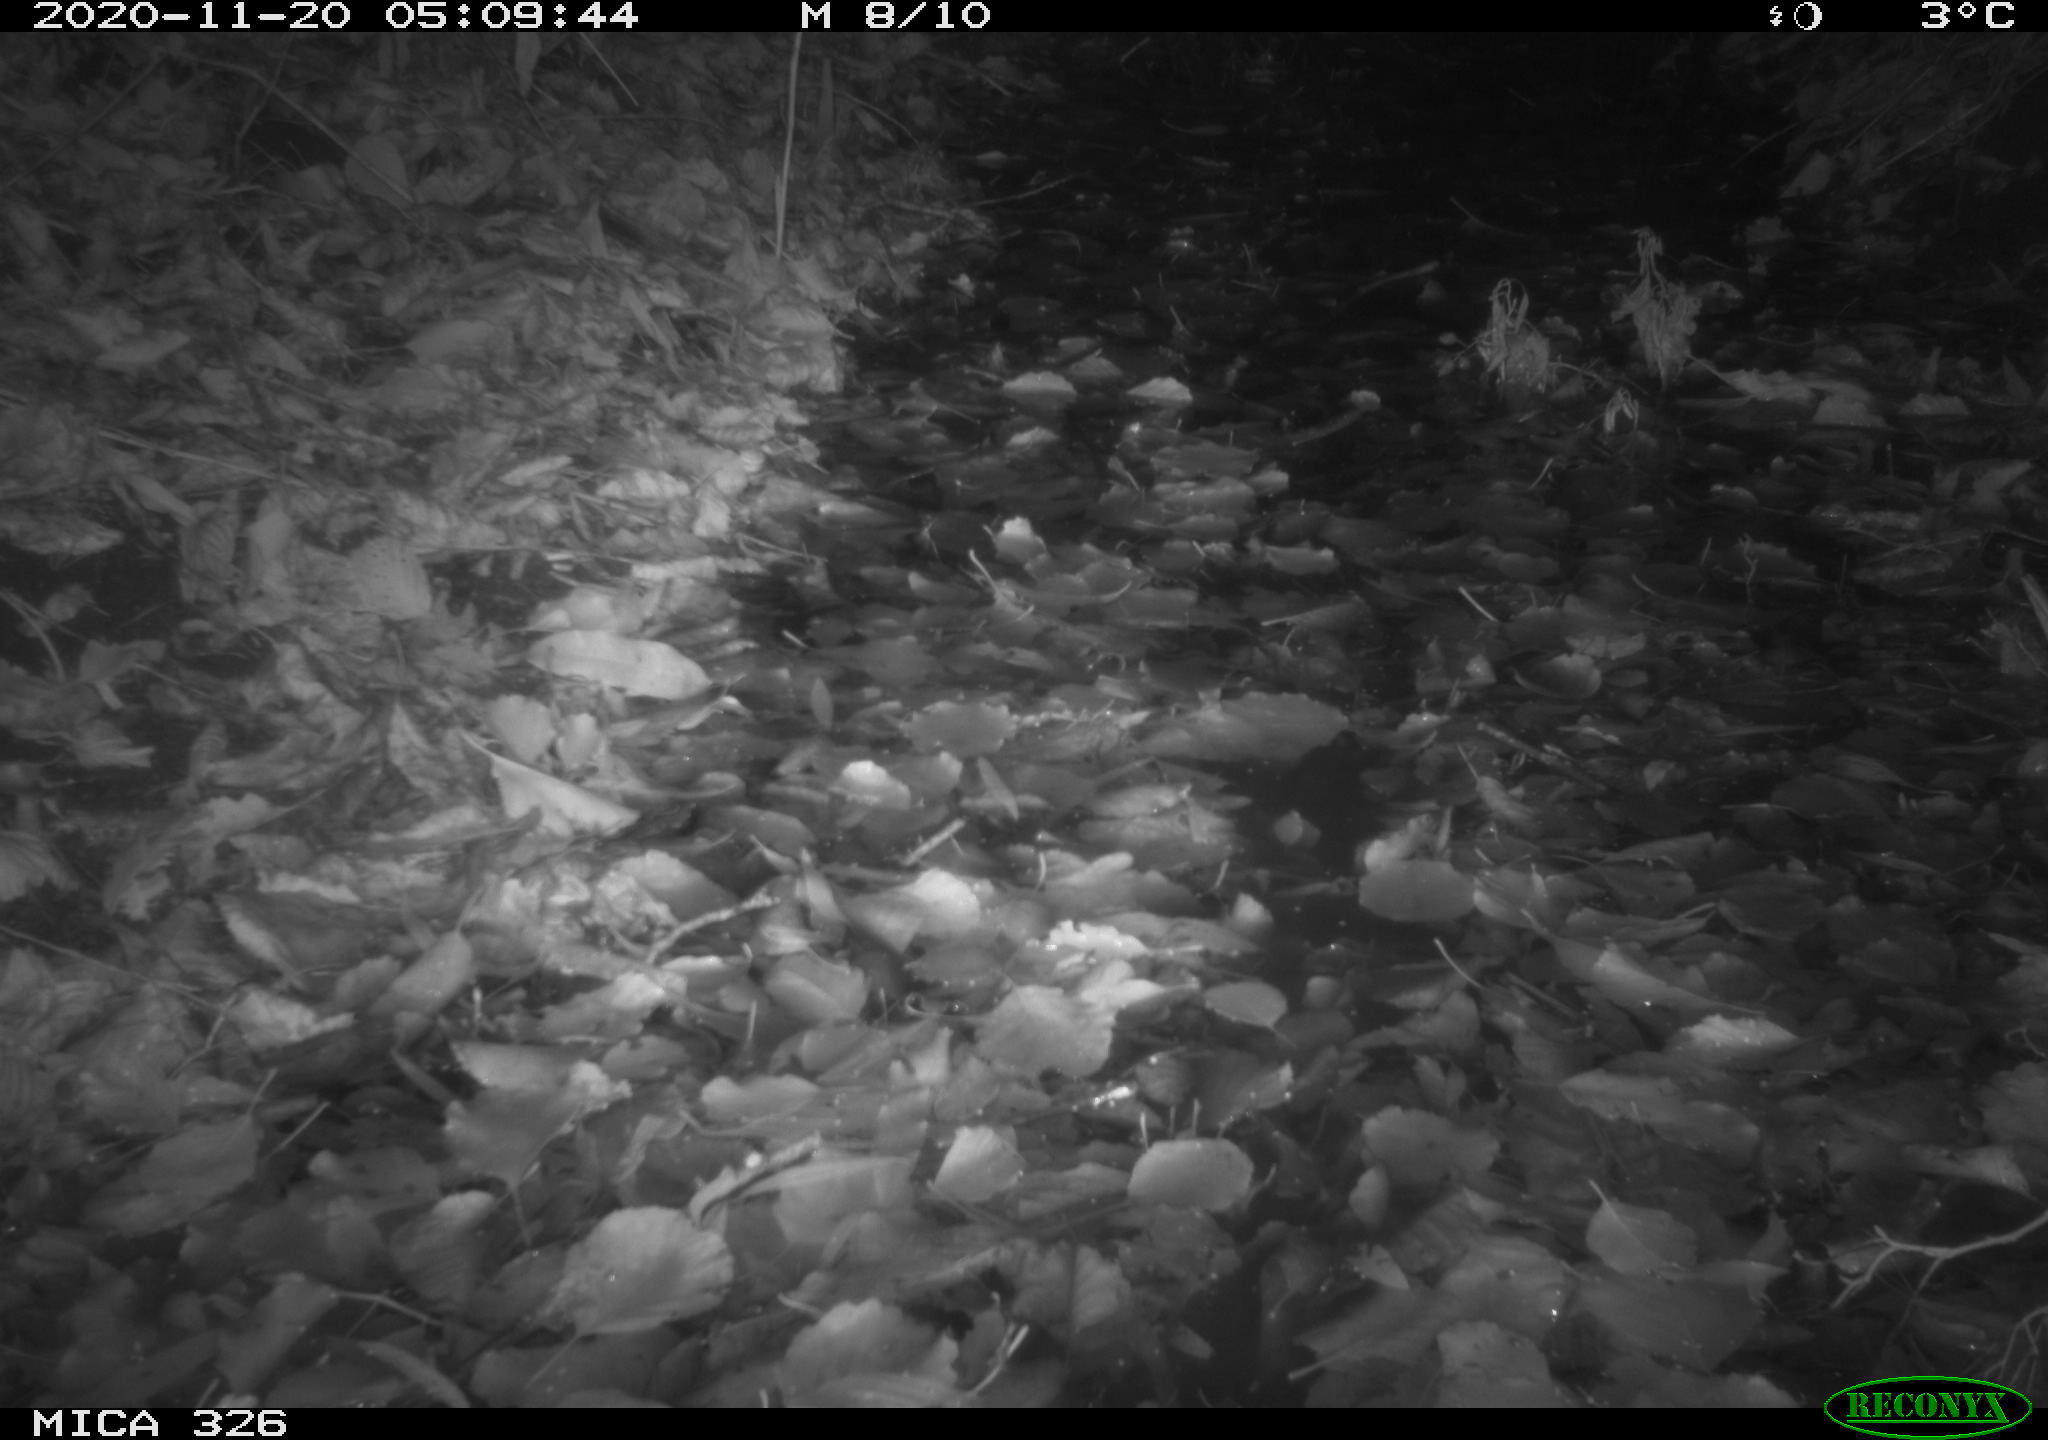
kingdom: Animalia
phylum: Chordata
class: Mammalia
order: Carnivora
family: Mustelidae
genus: Lutra
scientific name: Lutra lutra
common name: European otter
